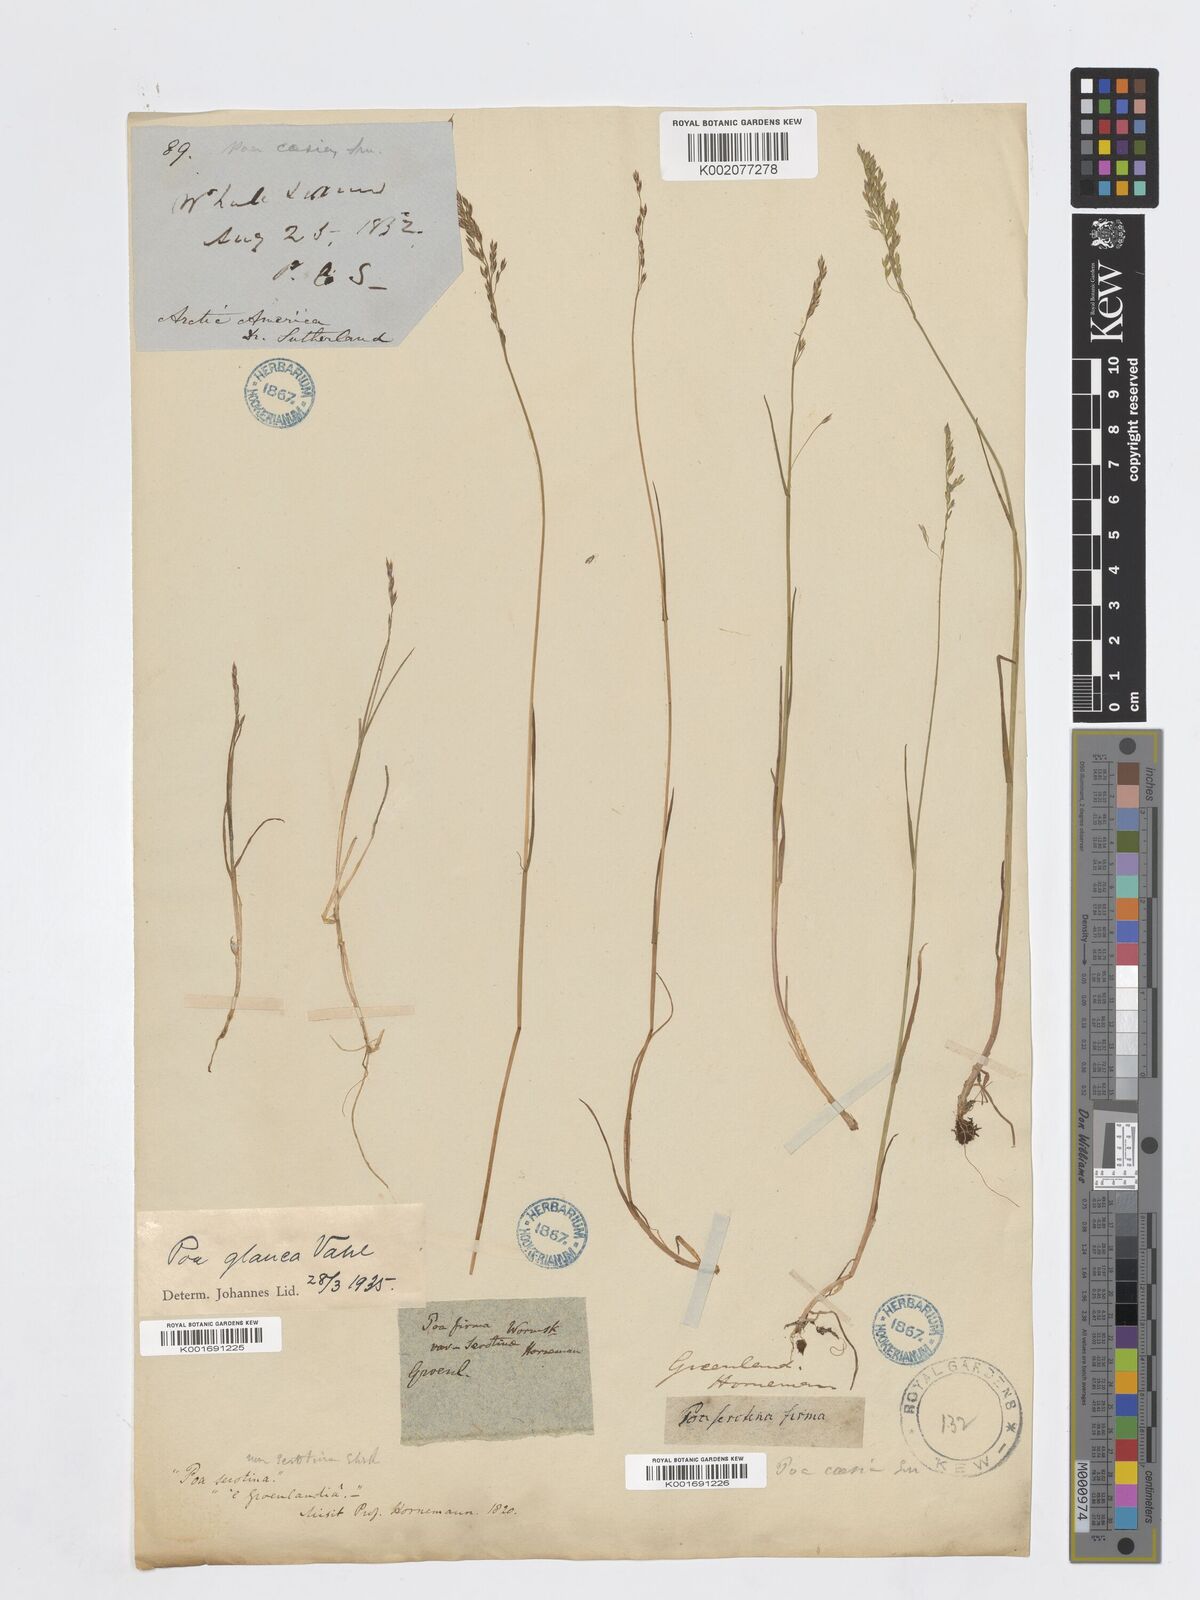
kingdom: Plantae
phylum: Tracheophyta
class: Liliopsida
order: Poales
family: Poaceae
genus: Poa
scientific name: Poa glauca
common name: Glaucous bluegrass
